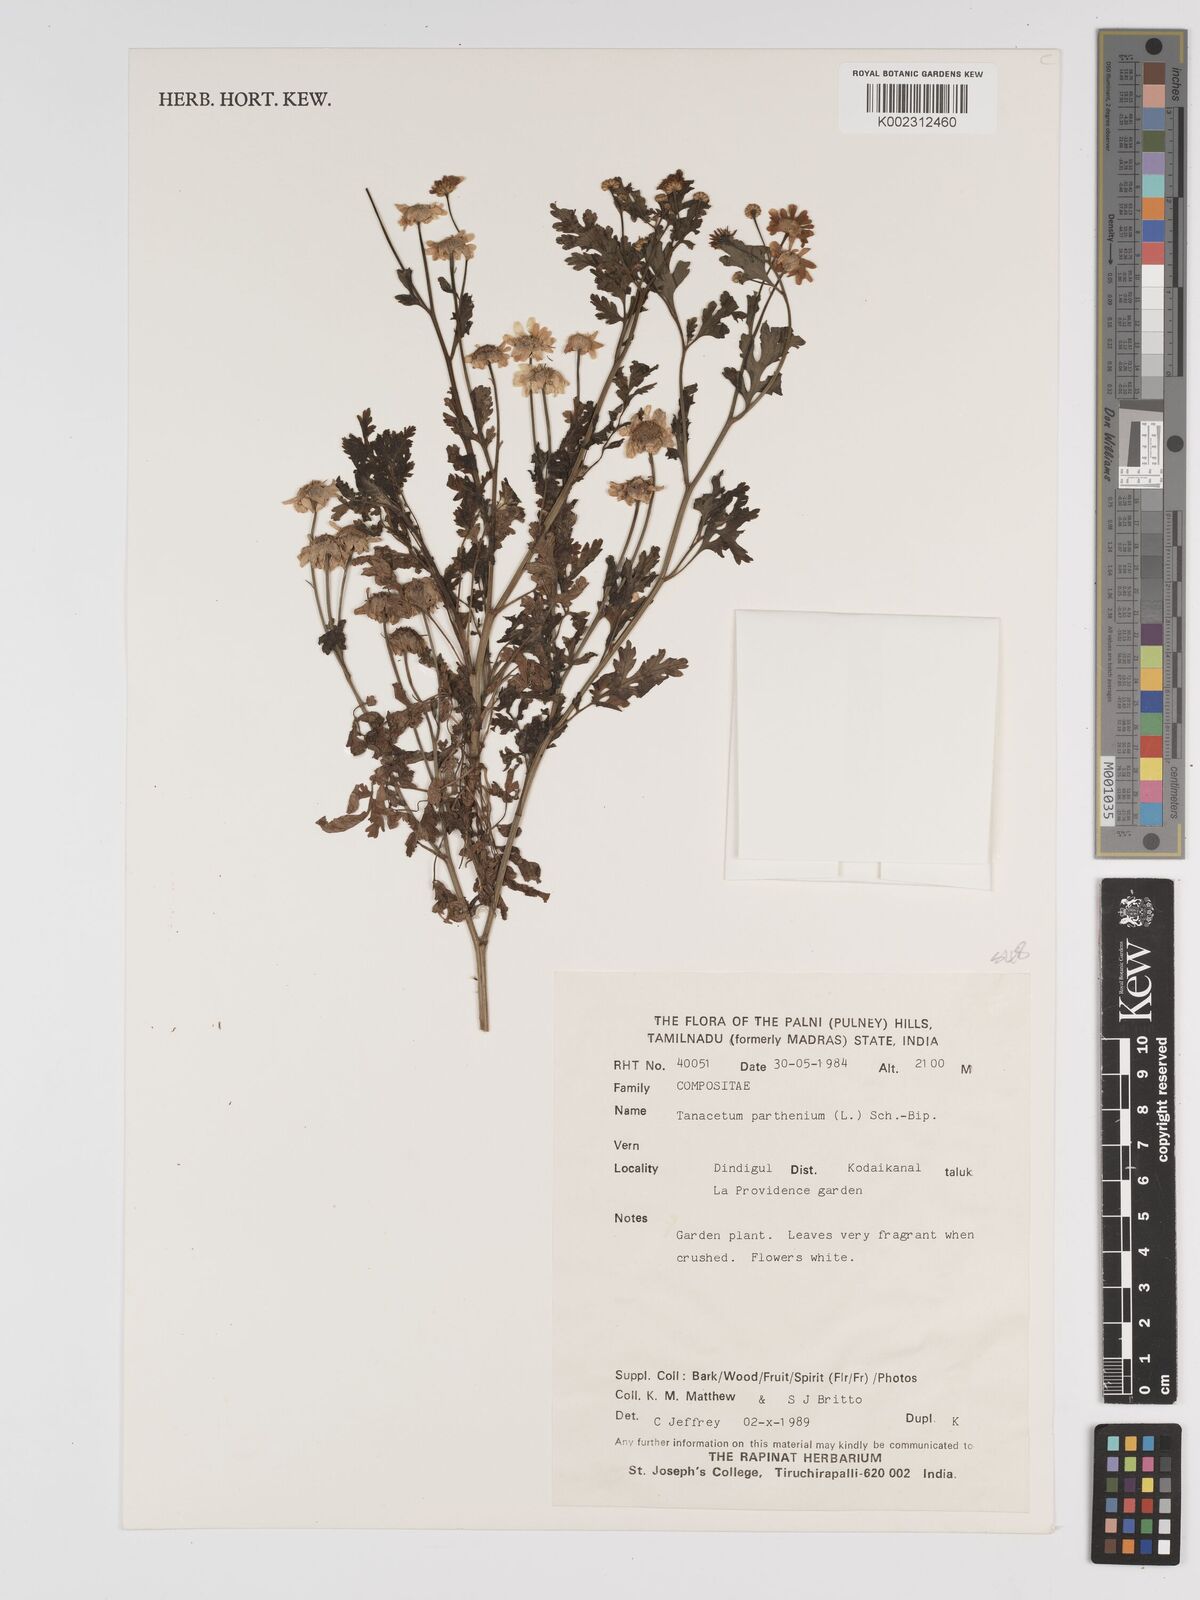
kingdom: Plantae
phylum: Tracheophyta
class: Magnoliopsida
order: Asterales
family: Asteraceae
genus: Tanacetum
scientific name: Tanacetum parthenium
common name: Feverfew
